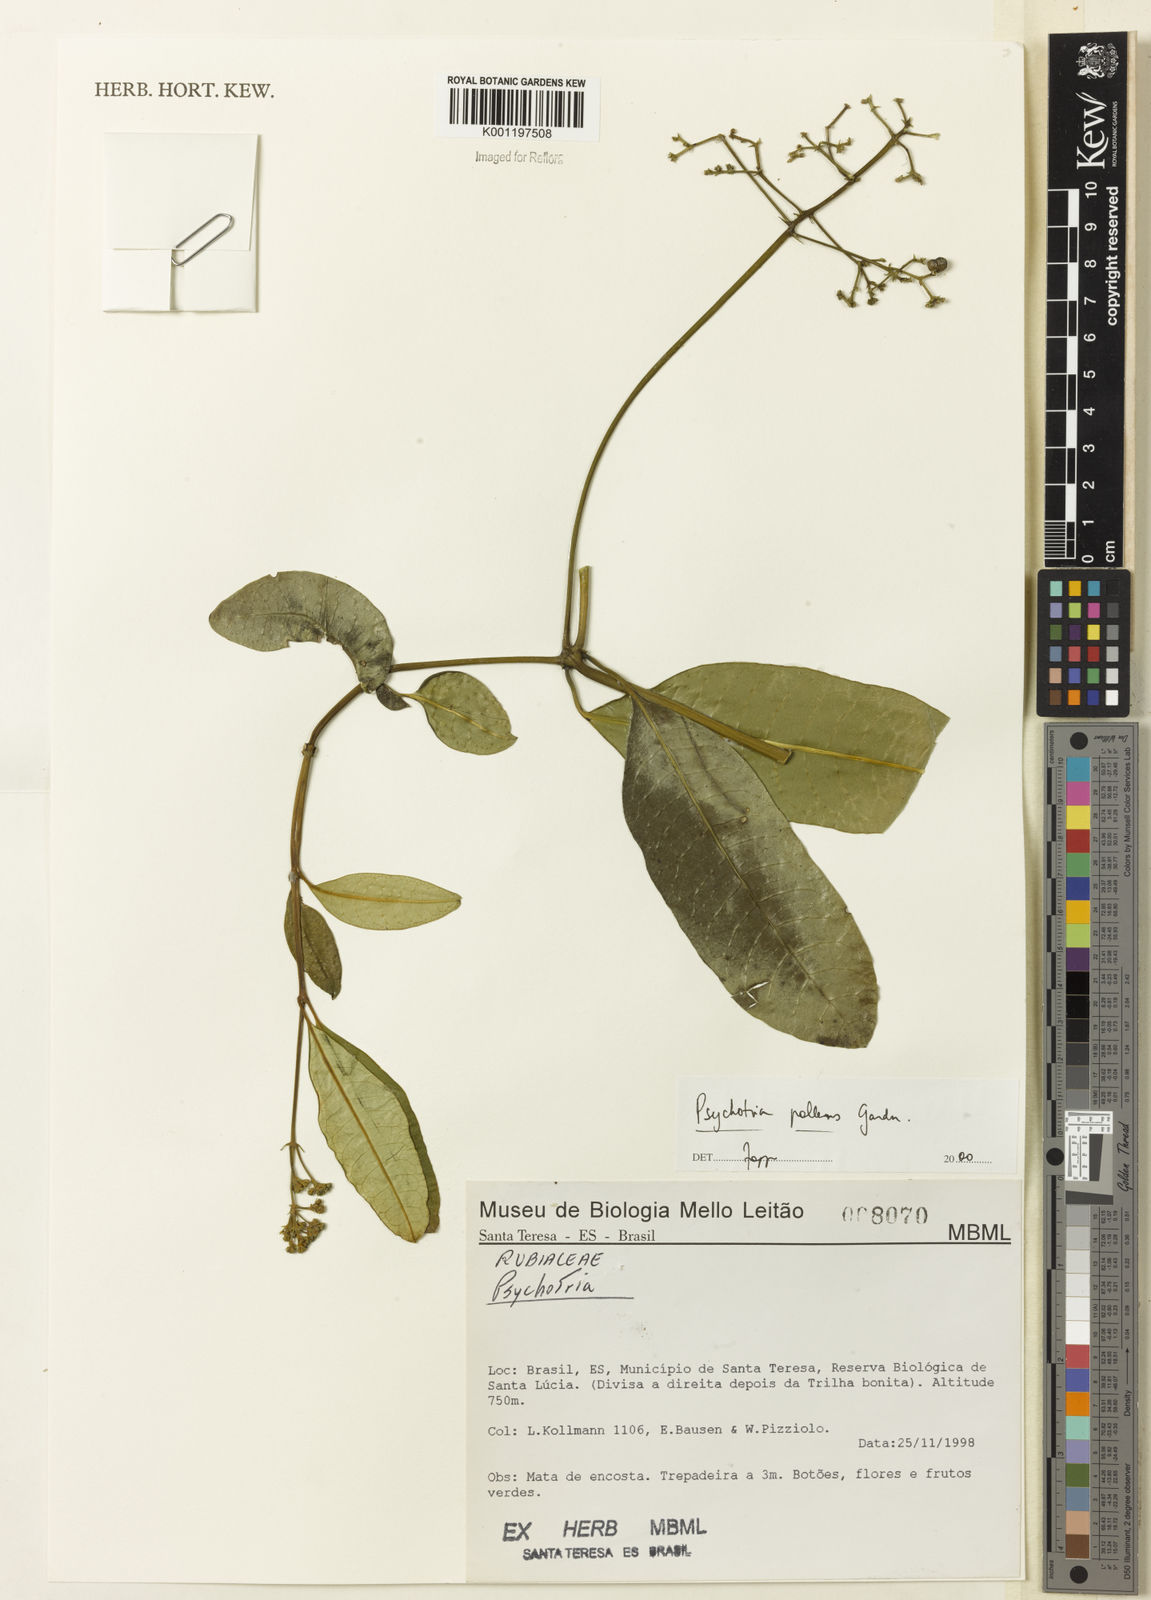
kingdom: Plantae
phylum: Tracheophyta
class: Magnoliopsida
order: Gentianales
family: Rubiaceae
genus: Psychotria
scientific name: Psychotria pallens
